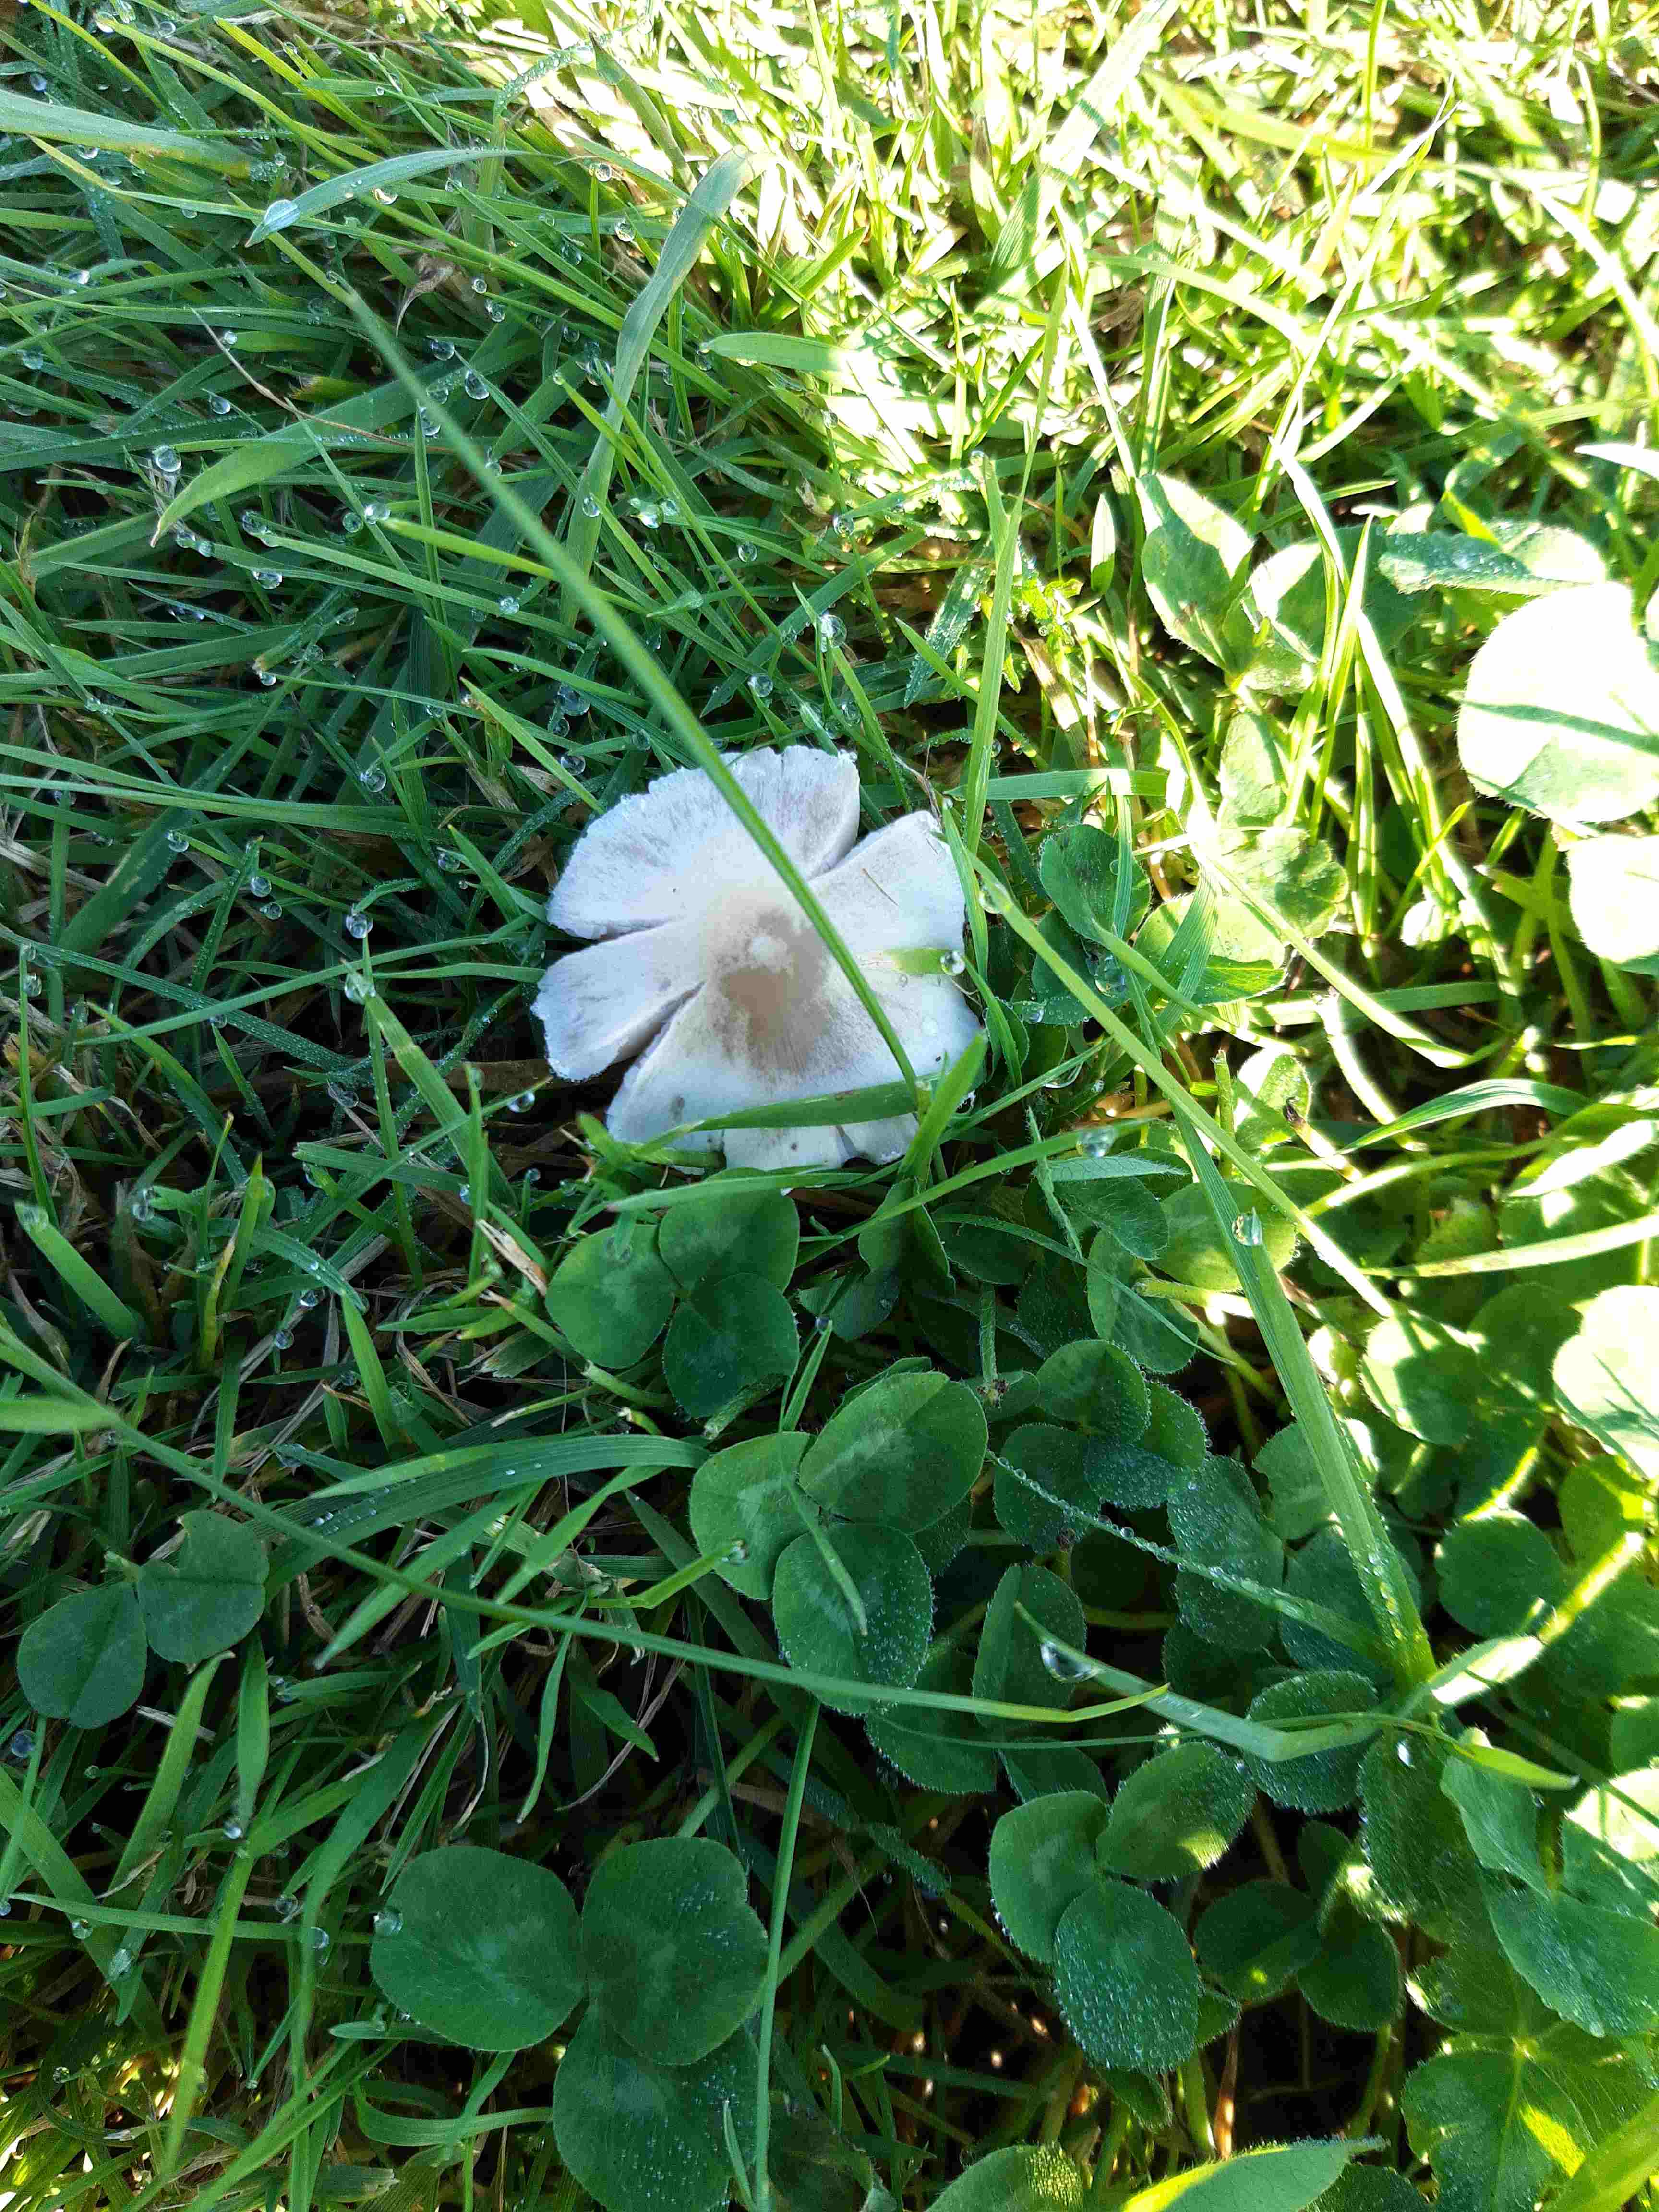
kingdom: Fungi
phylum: Basidiomycota
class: Agaricomycetes
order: Agaricales
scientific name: Agaricales
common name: champignonordenen
